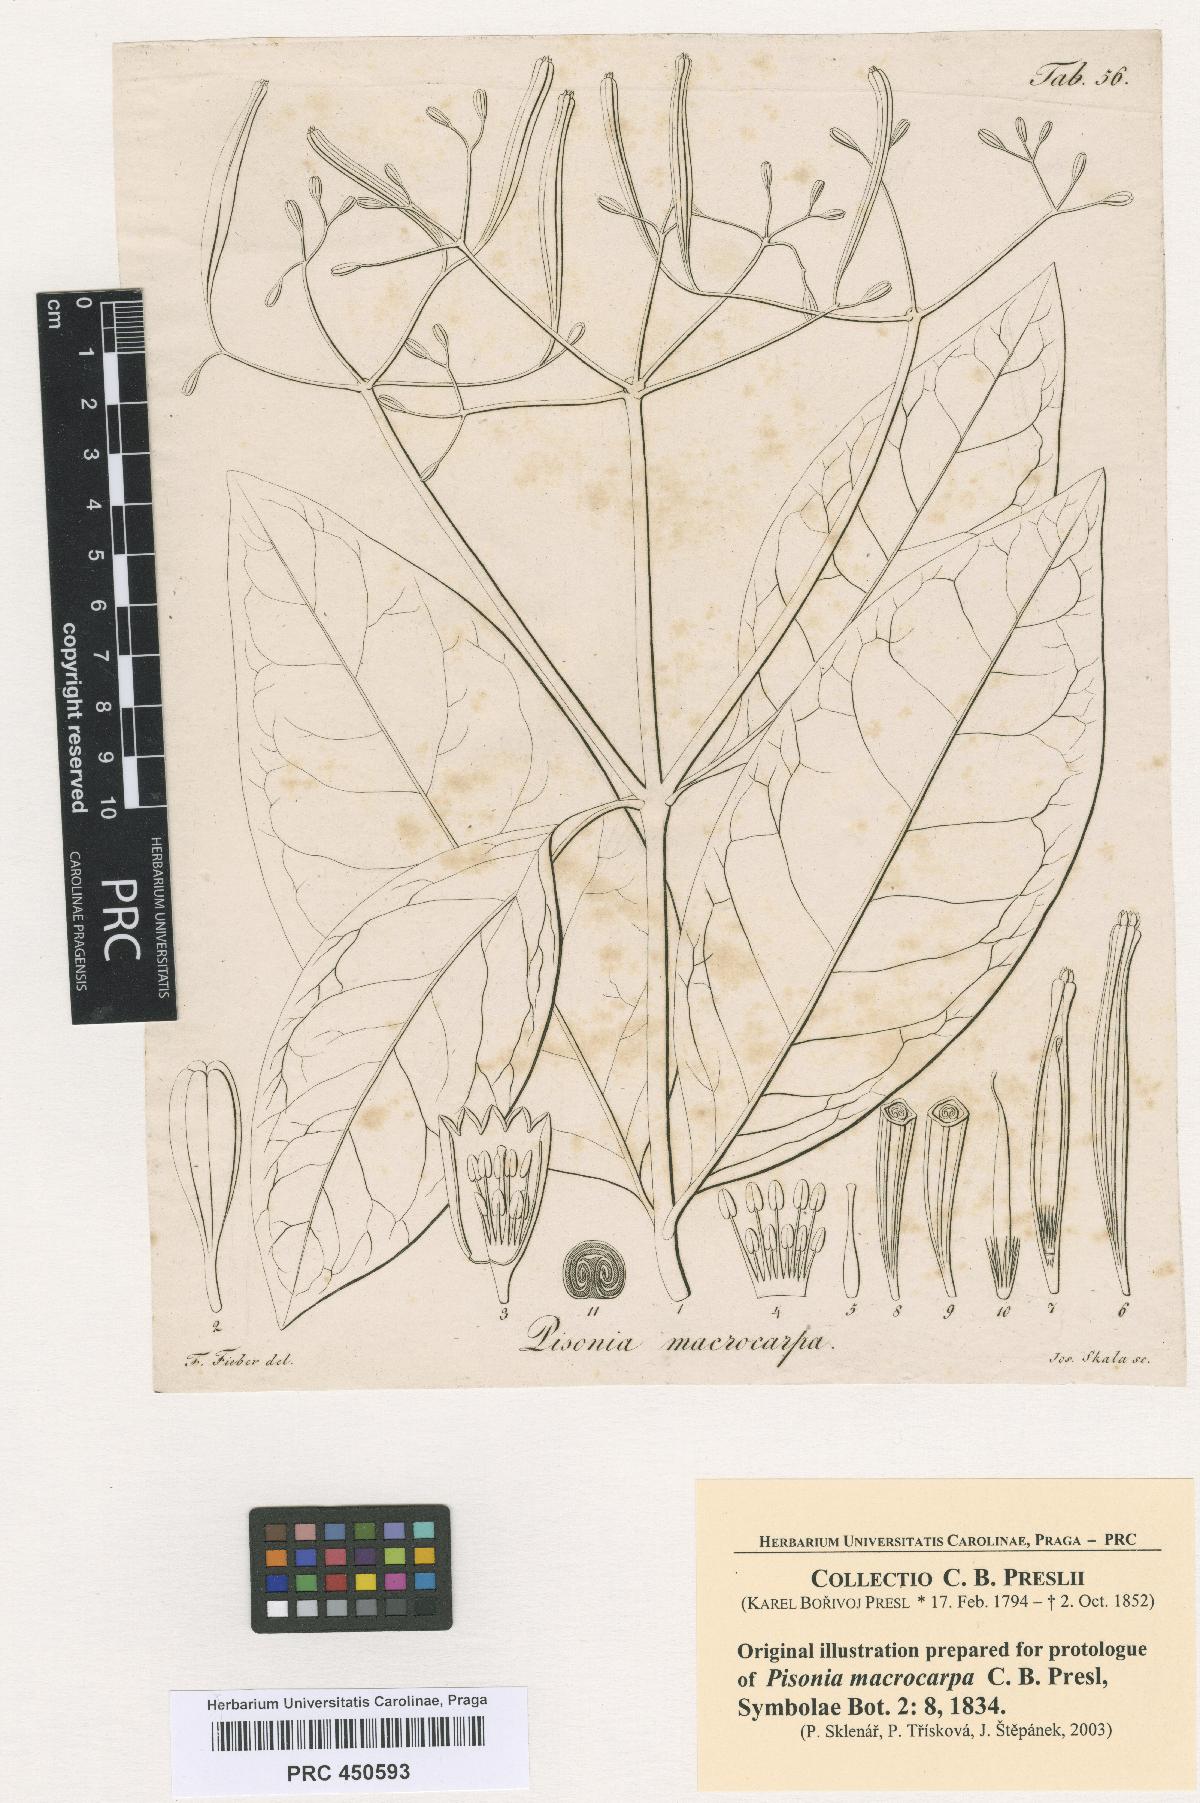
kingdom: Plantae
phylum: Tracheophyta
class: Magnoliopsida
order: Caryophyllales
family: Nyctaginaceae
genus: Ceodes
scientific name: Ceodes umbellifera
